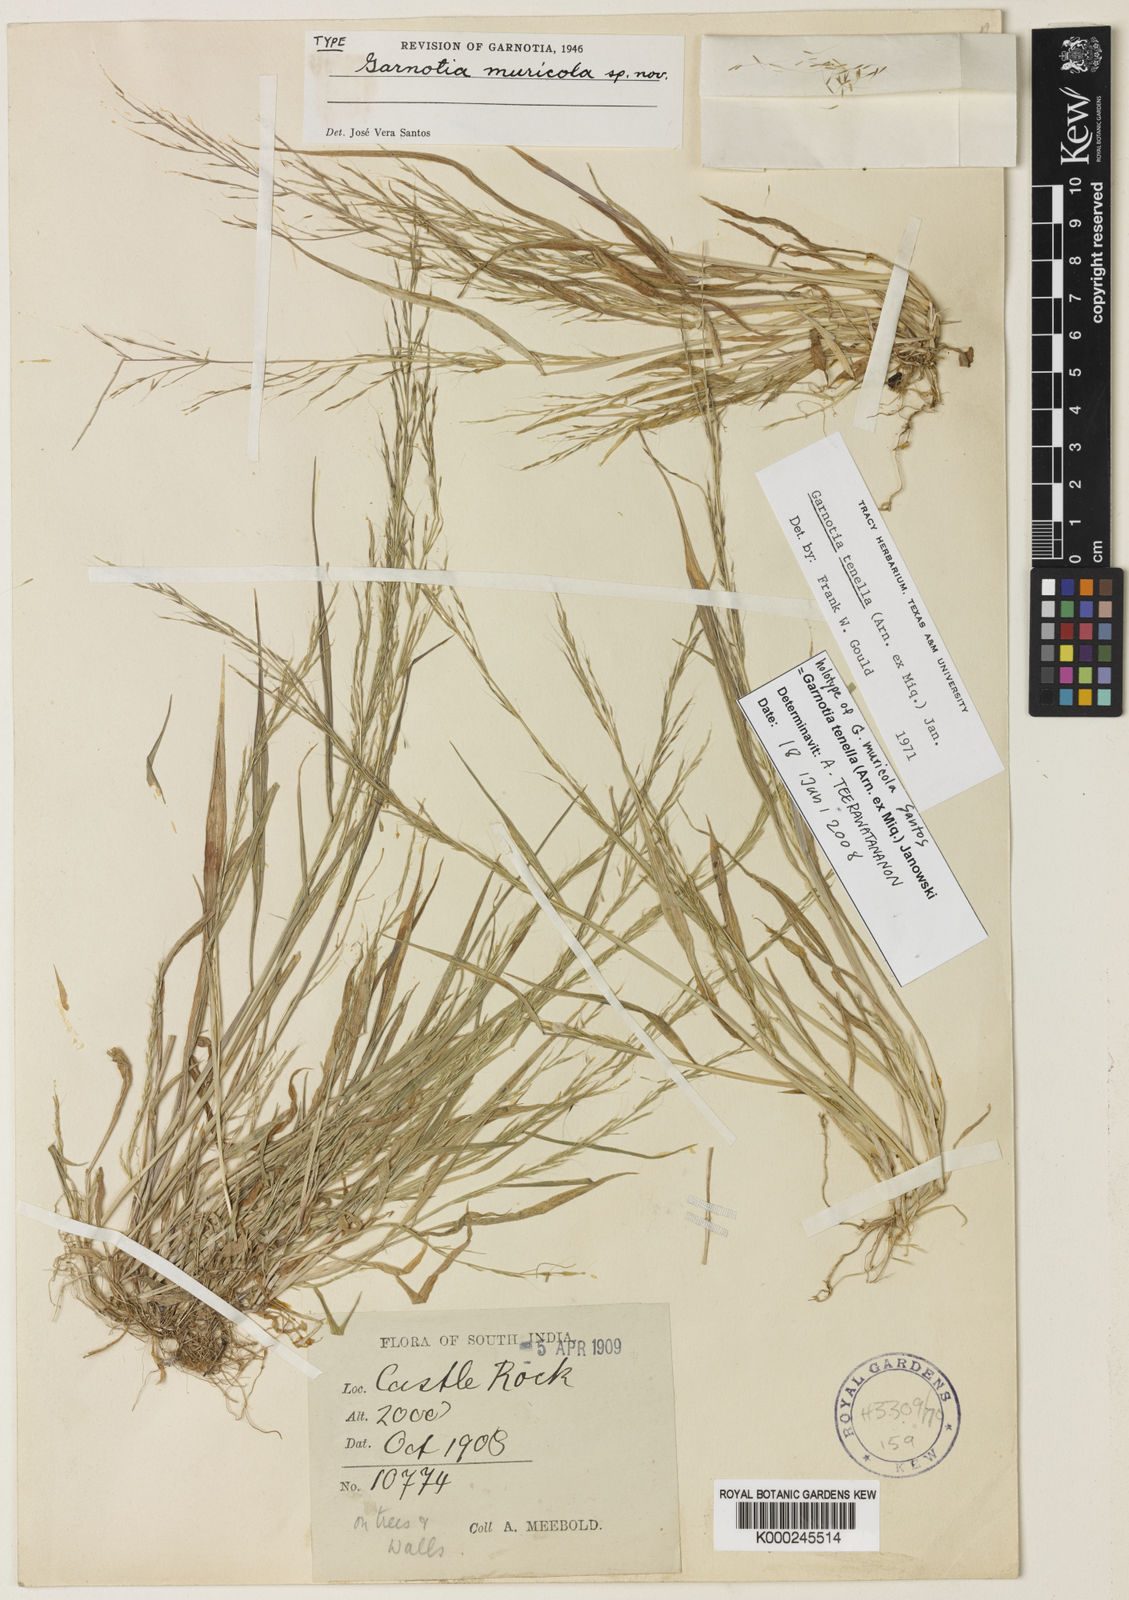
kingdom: Plantae
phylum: Tracheophyta
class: Liliopsida
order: Poales
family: Poaceae
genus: Garnotia
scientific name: Garnotia tenella
